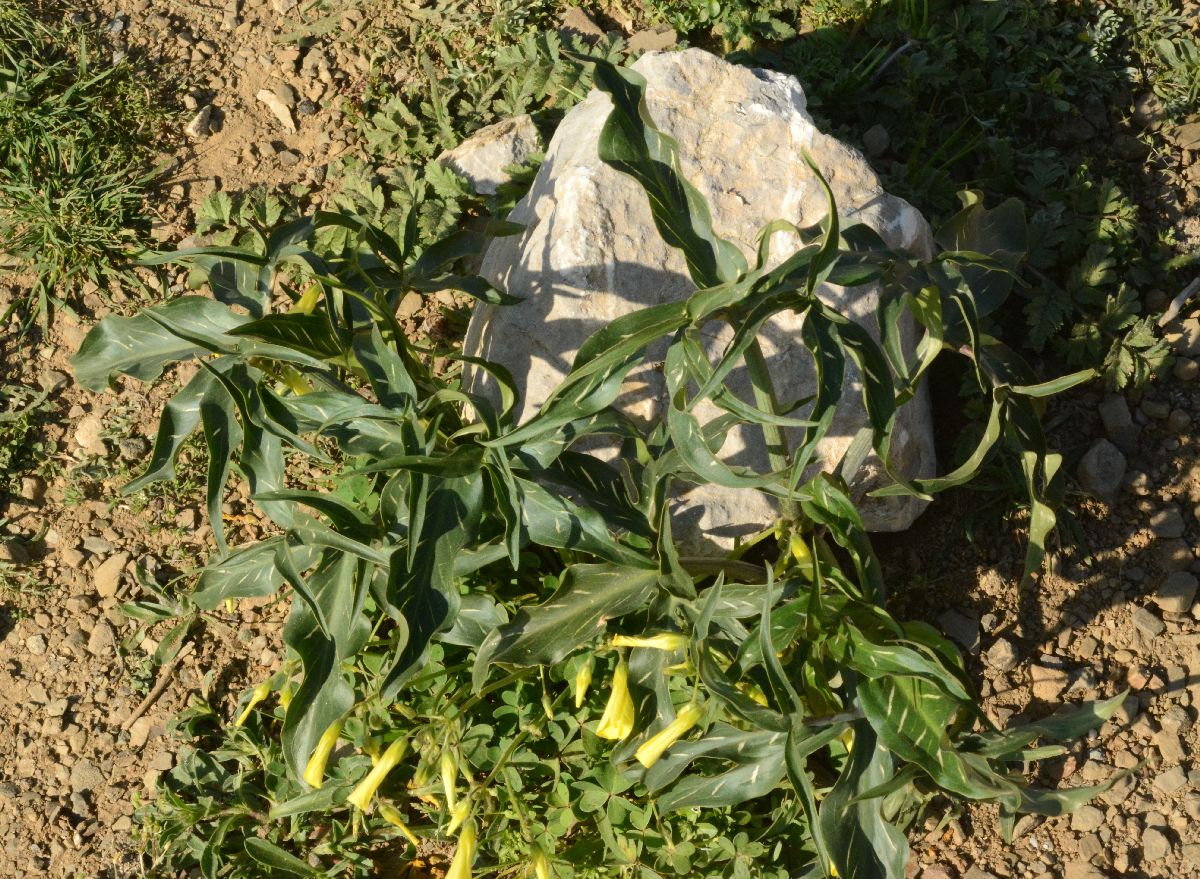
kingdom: Plantae
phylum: Tracheophyta
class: Liliopsida
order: Alismatales
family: Araceae
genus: Dracunculus
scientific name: Dracunculus vulgaris
